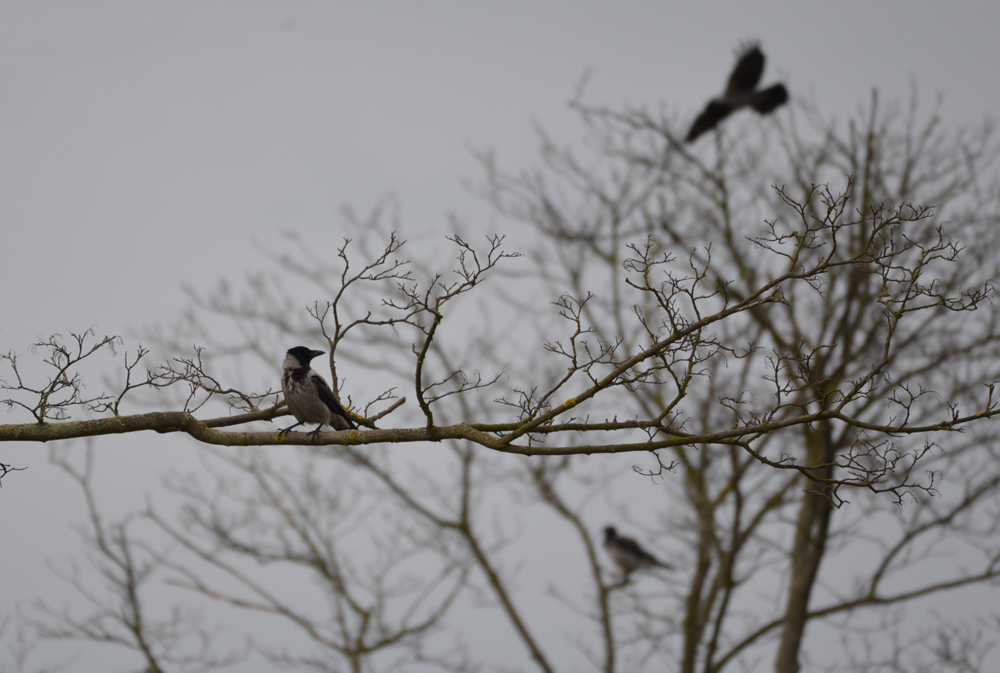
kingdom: Animalia
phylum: Chordata
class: Aves
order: Passeriformes
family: Corvidae
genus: Corvus
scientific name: Corvus cornix
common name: Hooded crow
